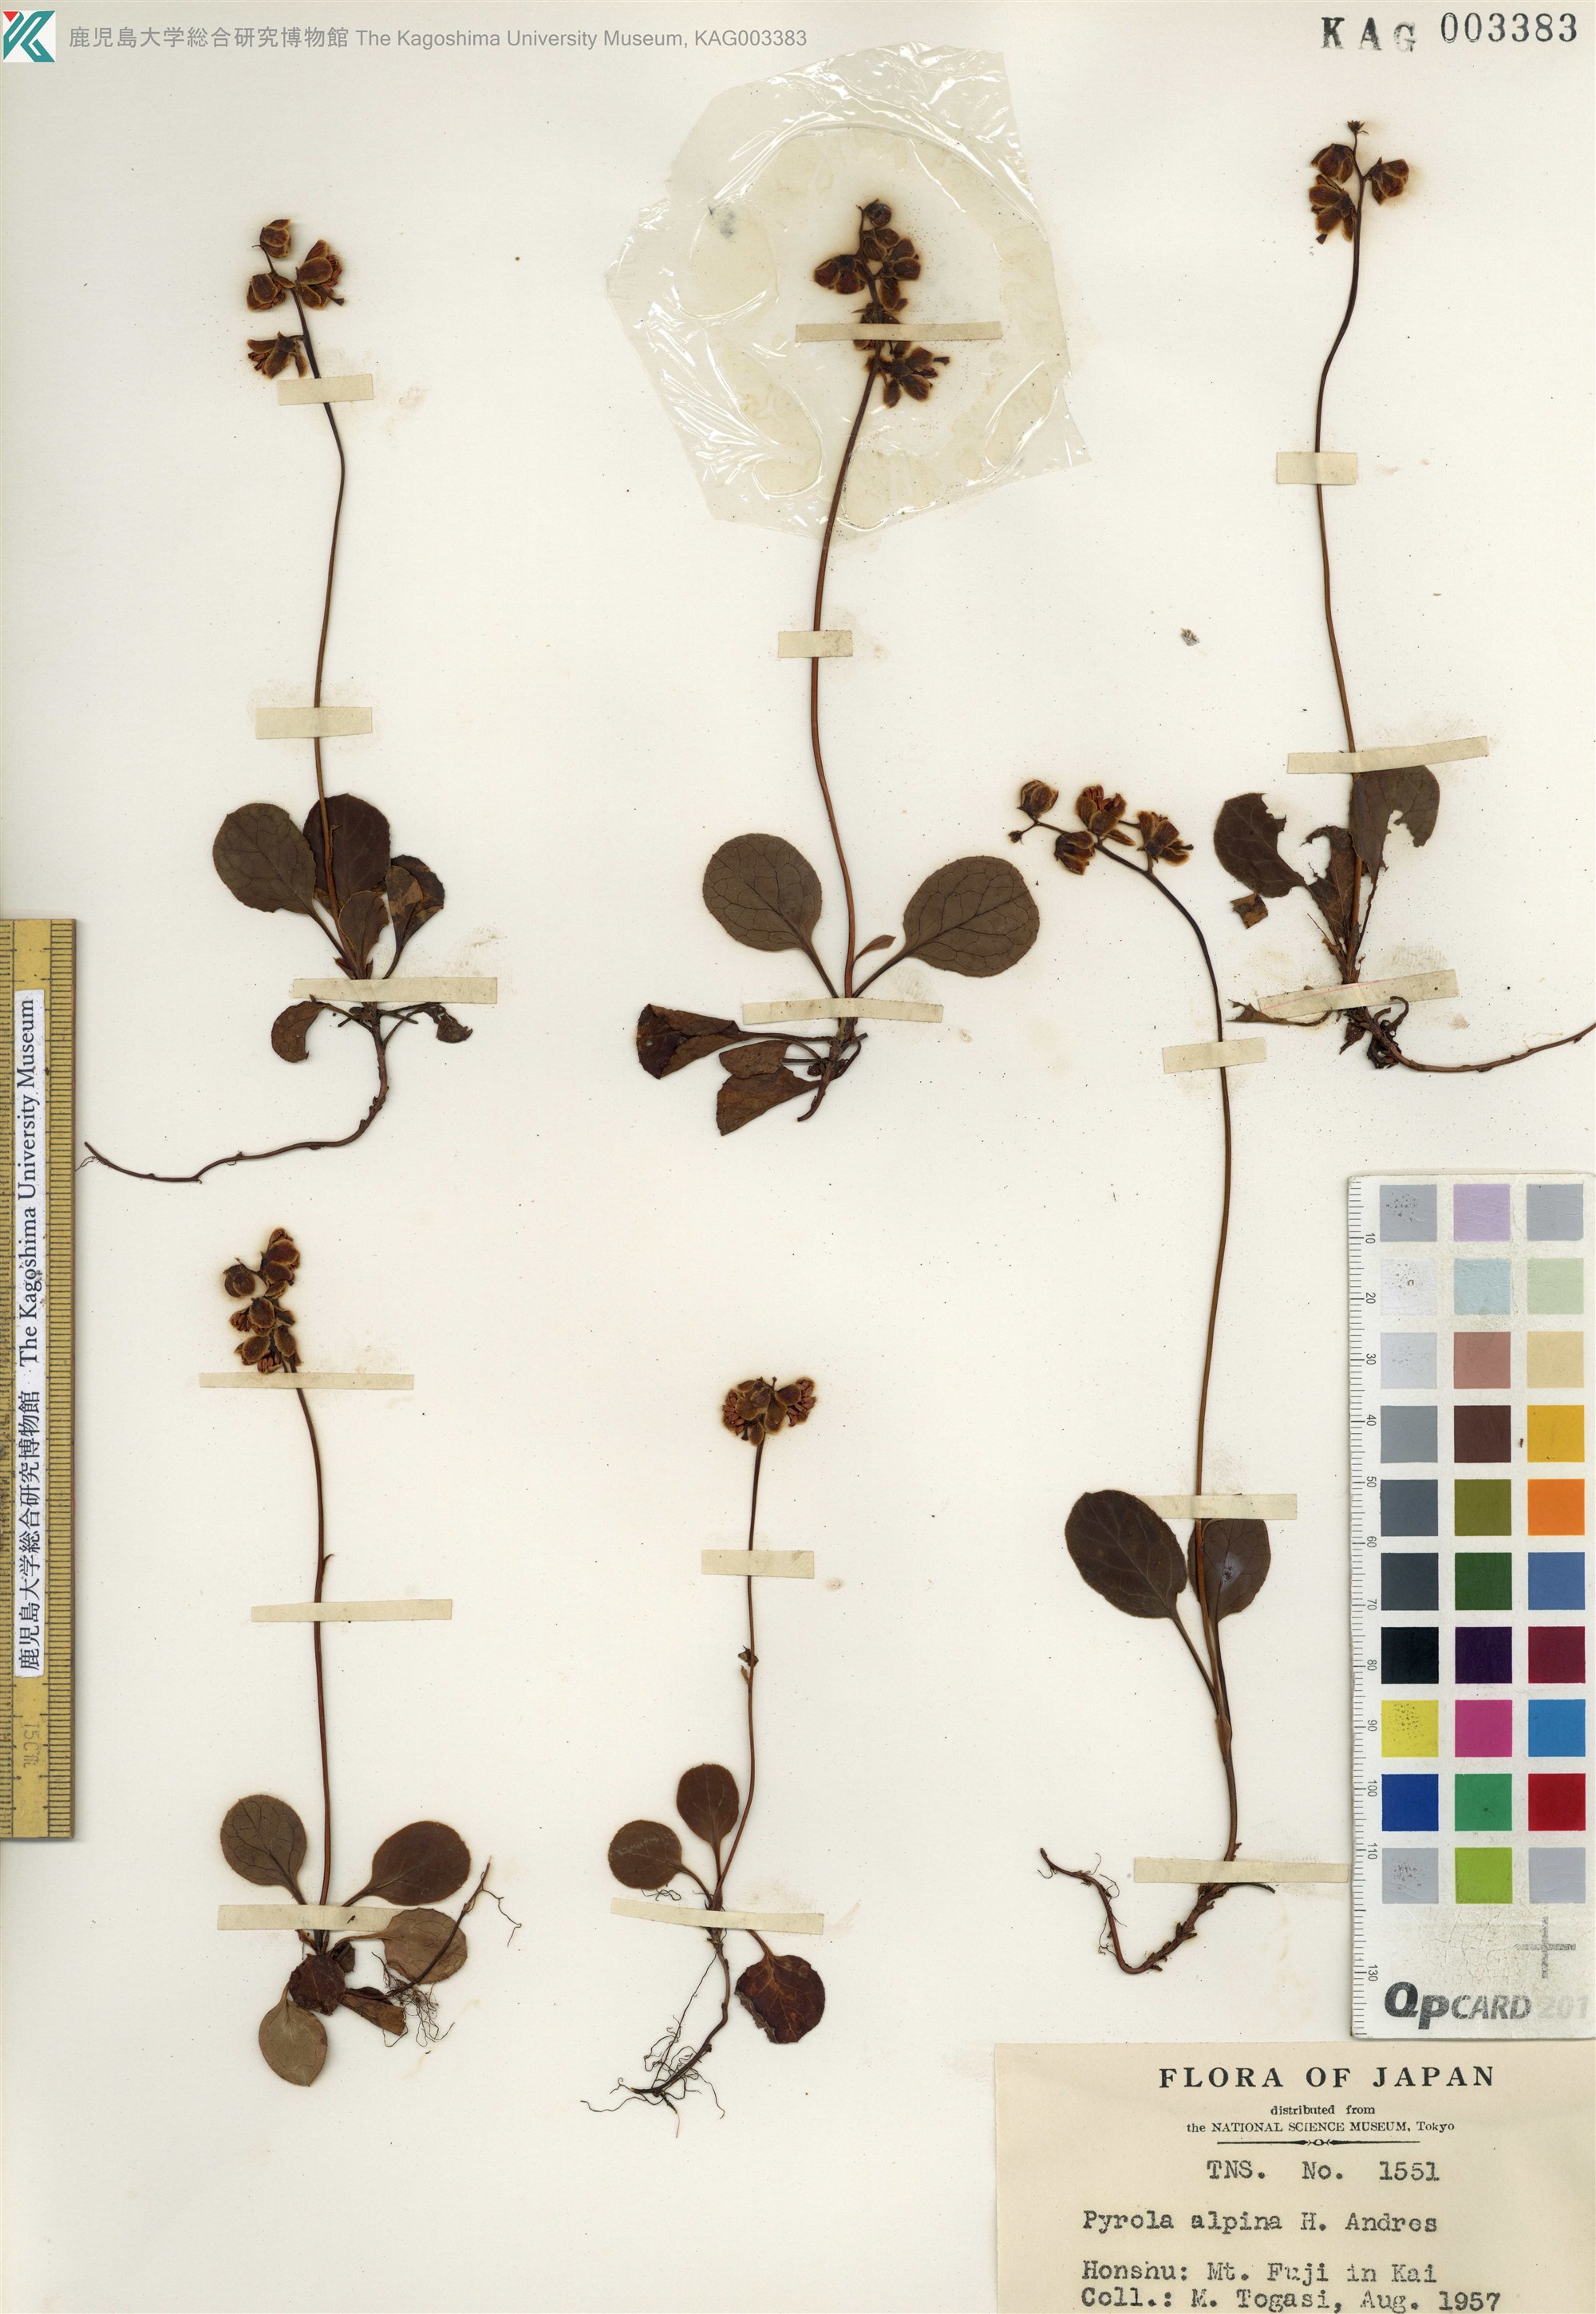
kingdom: Plantae
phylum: Tracheophyta
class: Magnoliopsida
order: Ericales
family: Ericaceae
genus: Pyrola
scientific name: Pyrola alpina
